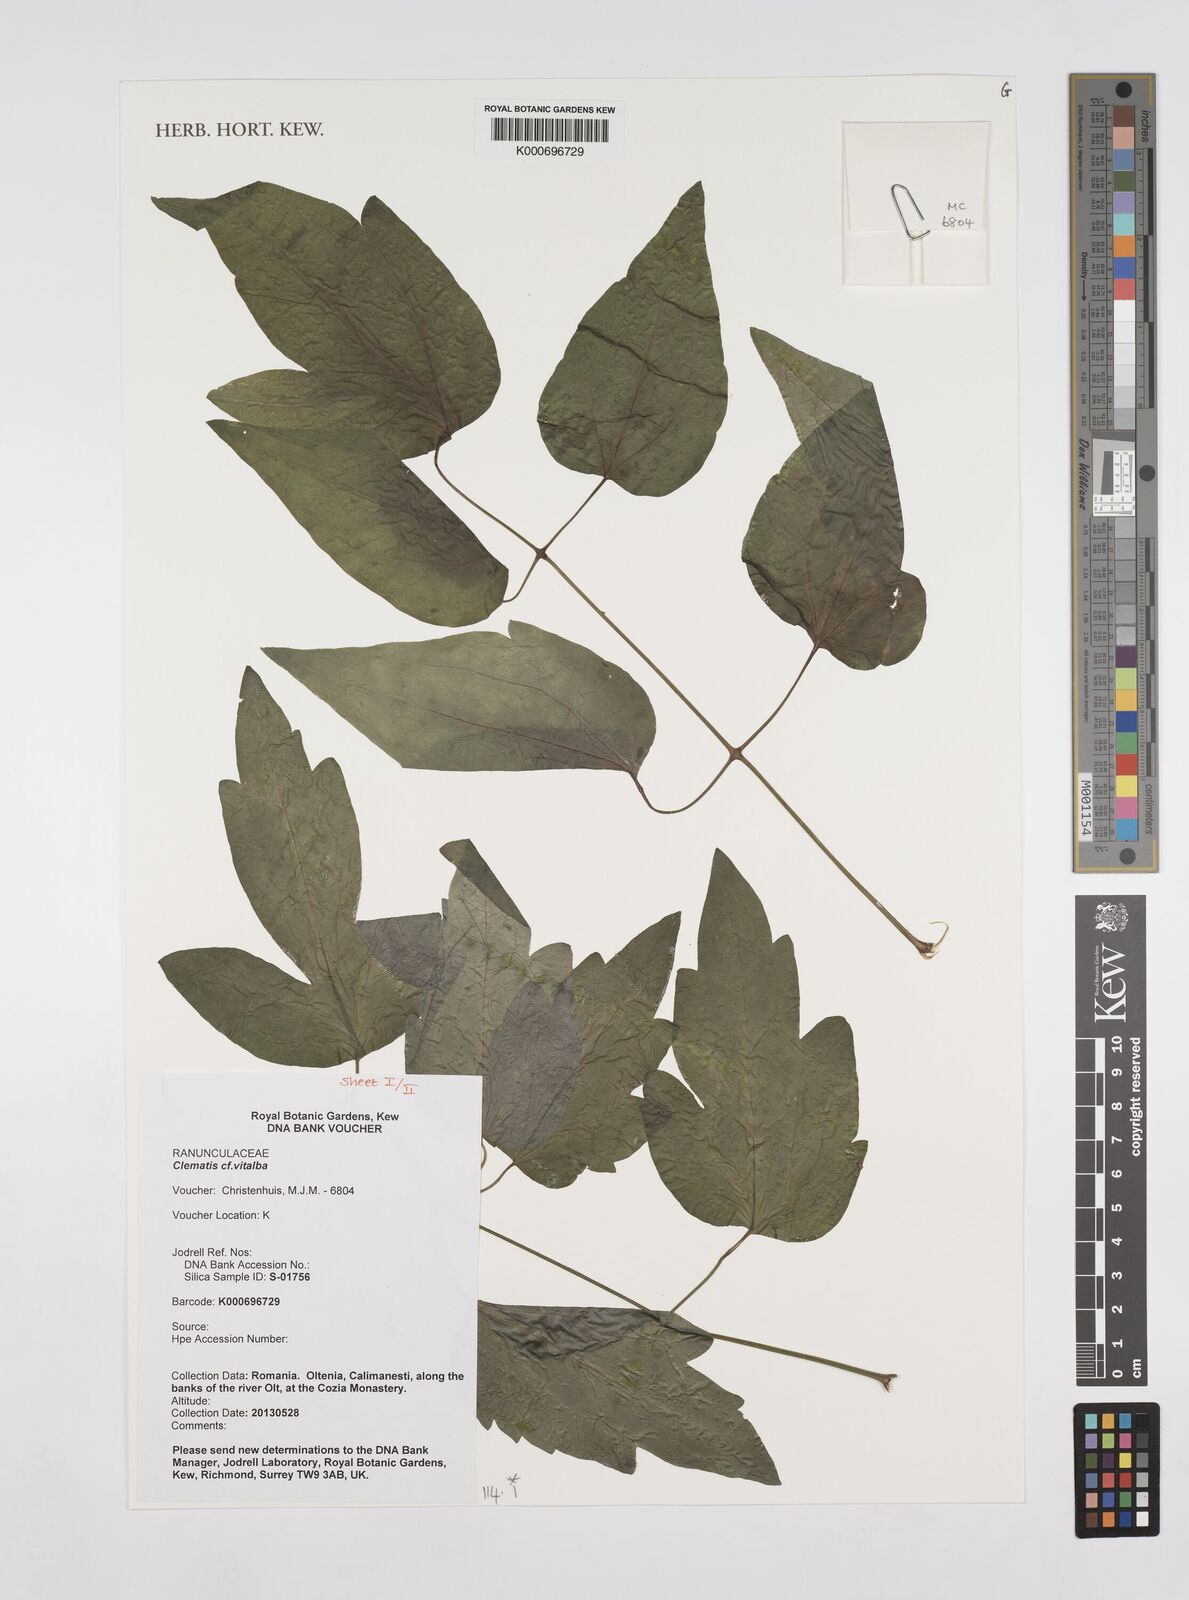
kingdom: Plantae
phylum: Tracheophyta
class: Magnoliopsida
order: Ranunculales
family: Ranunculaceae
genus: Clematis
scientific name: Clematis vitalba
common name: Evergreen clematis
